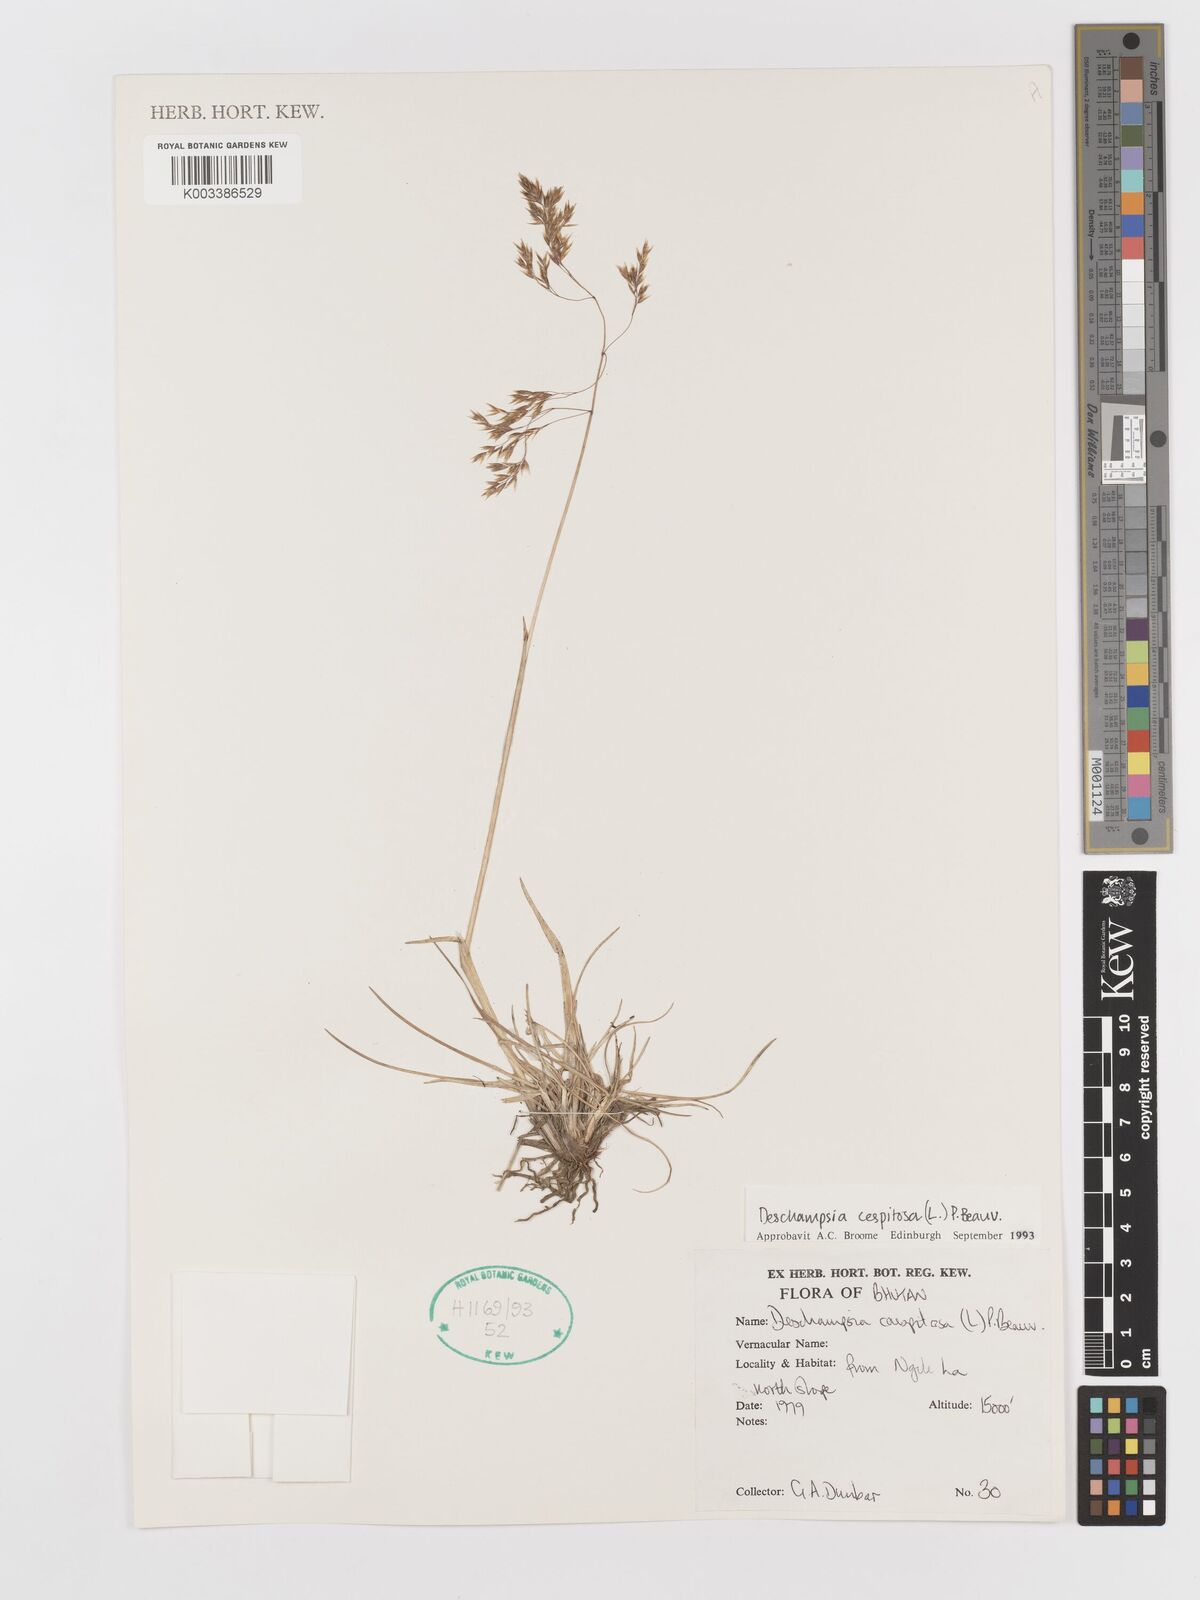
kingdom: Plantae
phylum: Tracheophyta
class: Liliopsida
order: Poales
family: Poaceae
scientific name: Poaceae
